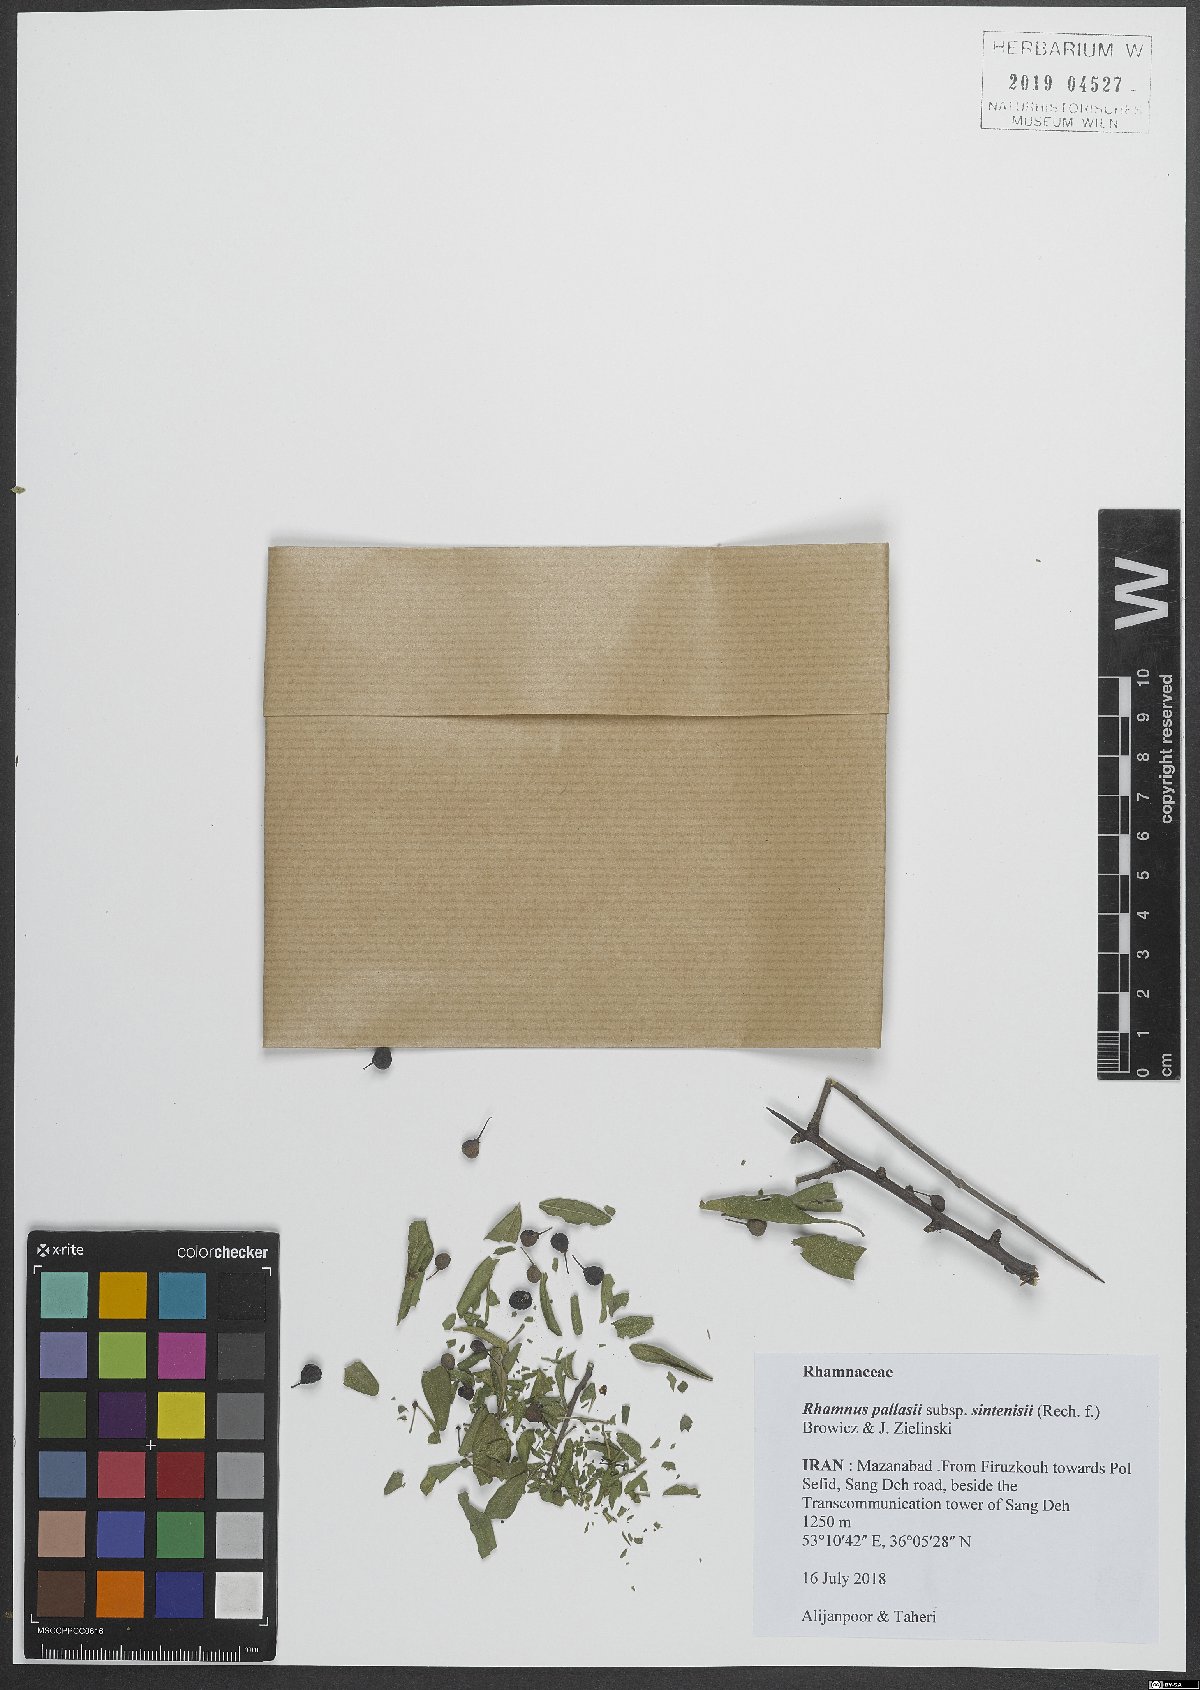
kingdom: Plantae
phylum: Tracheophyta
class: Magnoliopsida
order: Rosales
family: Rhamnaceae
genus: Rhamnus
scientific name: Rhamnus erythroxyloides
